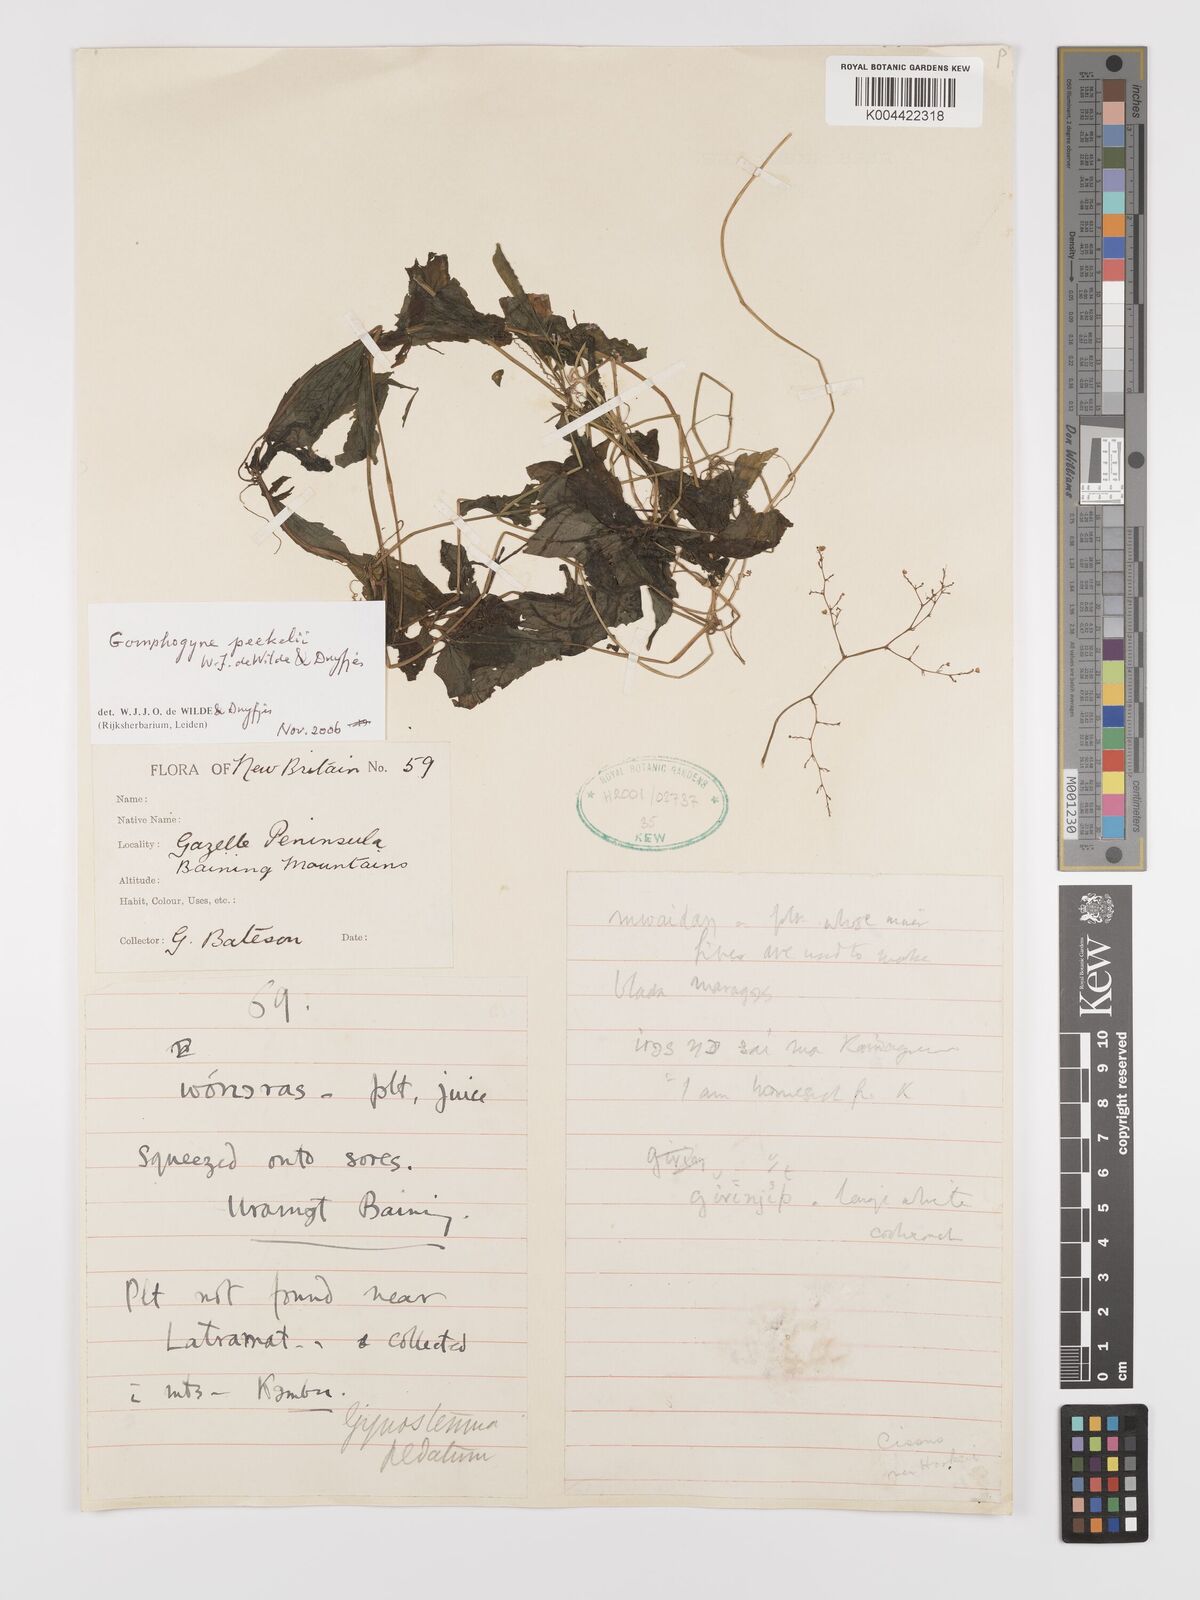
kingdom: Plantae
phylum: Tracheophyta
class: Magnoliopsida
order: Cucurbitales
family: Cucurbitaceae
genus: Hemsleya
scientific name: Hemsleya peekelii
